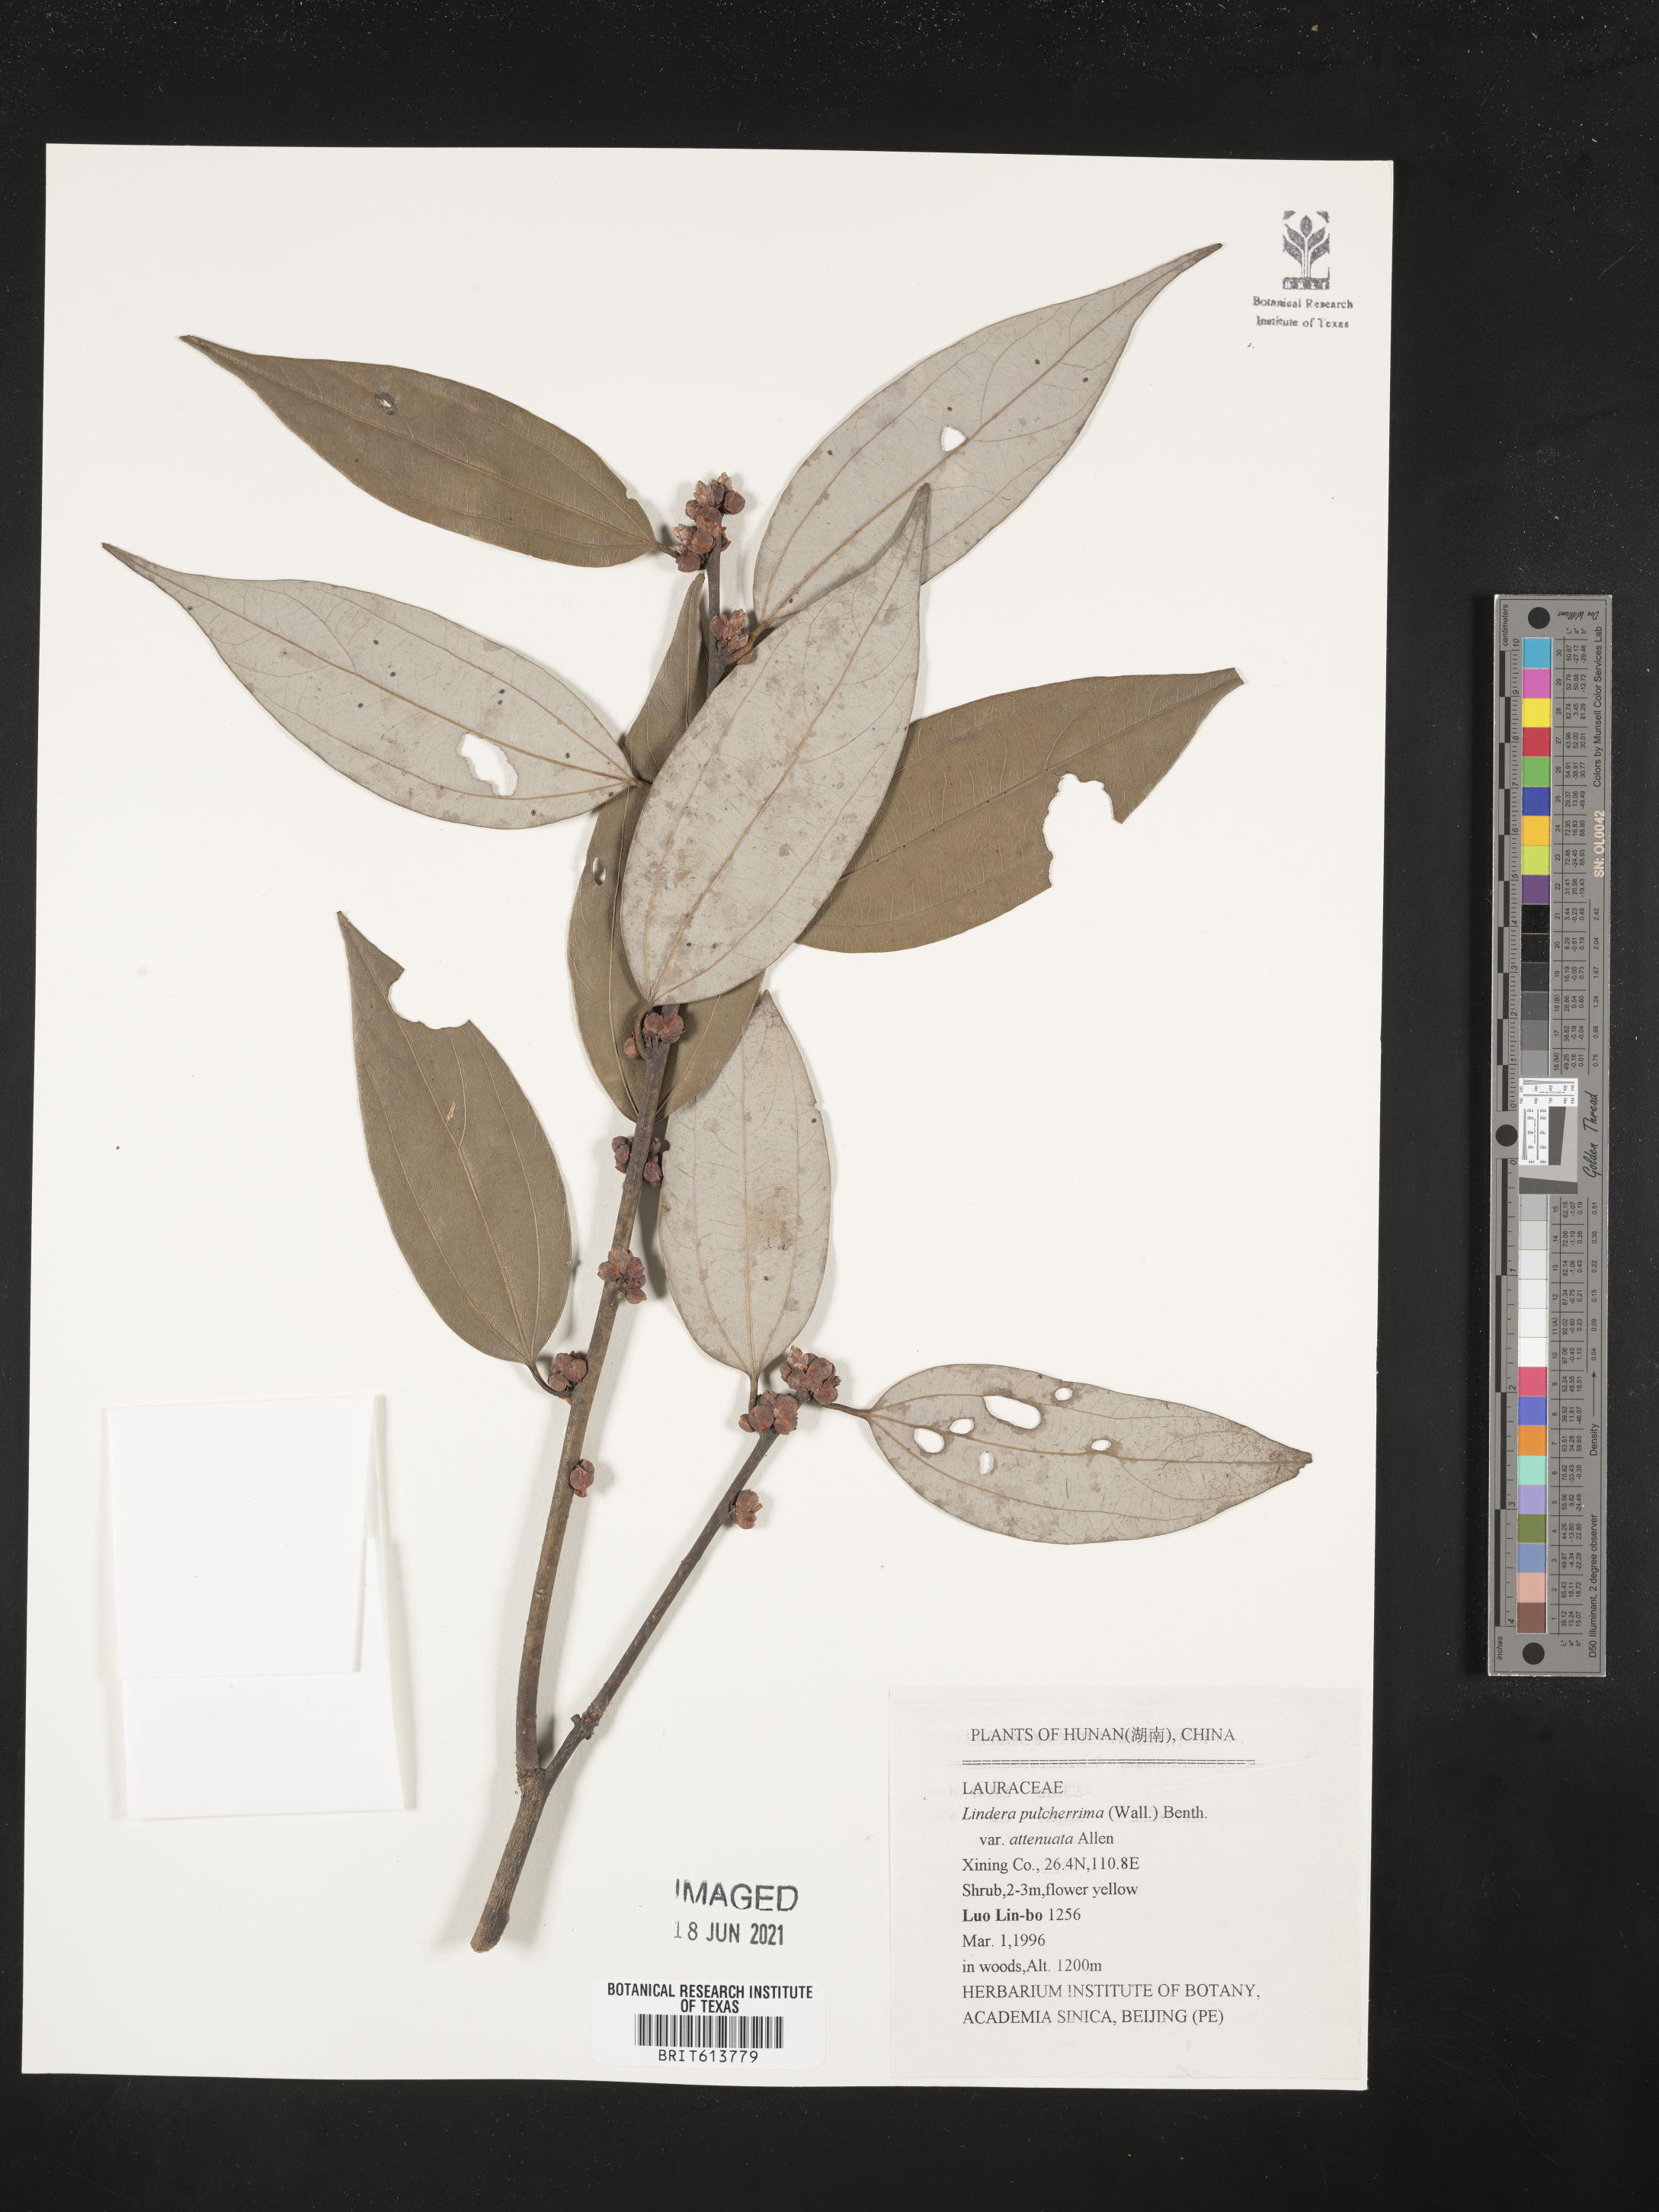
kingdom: Plantae
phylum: Tracheophyta
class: Magnoliopsida
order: Laurales
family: Lauraceae
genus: Lindera
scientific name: Lindera pulcherrima
